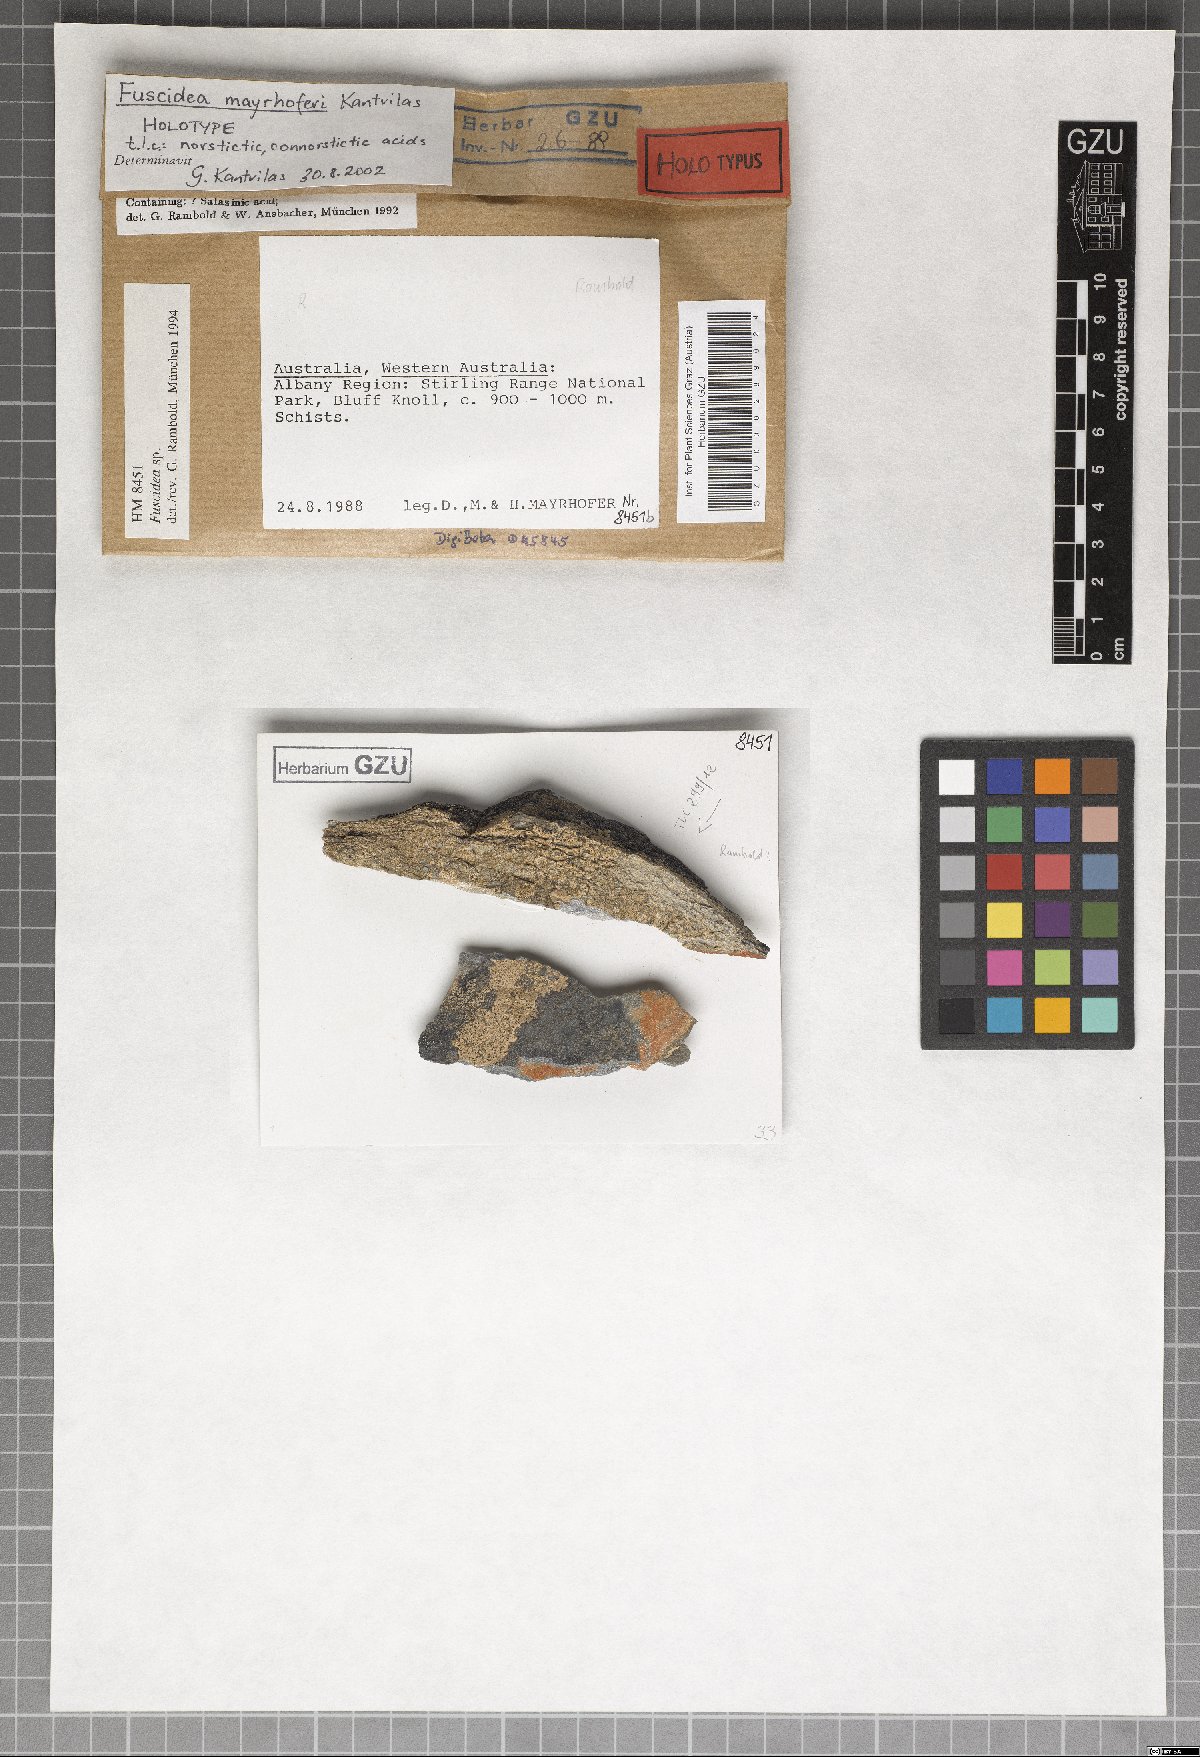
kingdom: Fungi
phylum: Ascomycota
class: Lecanoromycetes
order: Umbilicariales
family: Fuscideaceae
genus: Fuscidea
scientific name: Fuscidea mayrhoferi
